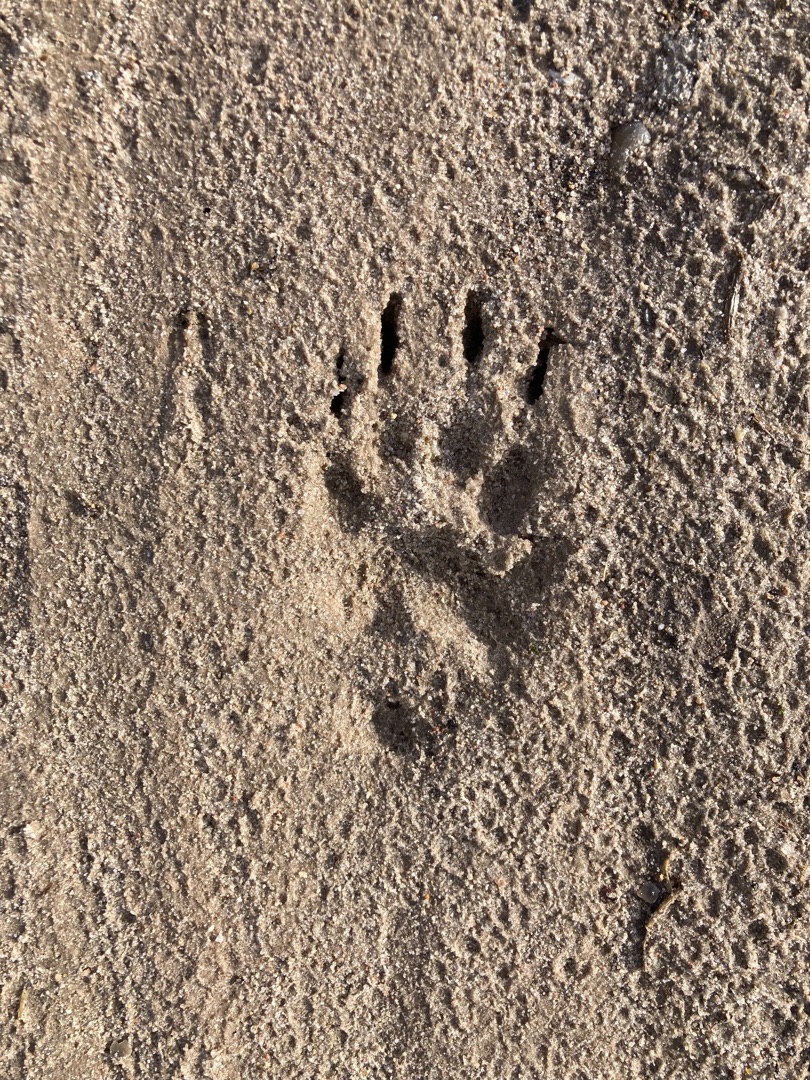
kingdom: Animalia
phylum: Chordata
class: Mammalia
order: Carnivora
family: Mustelidae
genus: Meles
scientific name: Meles meles
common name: Grævling
